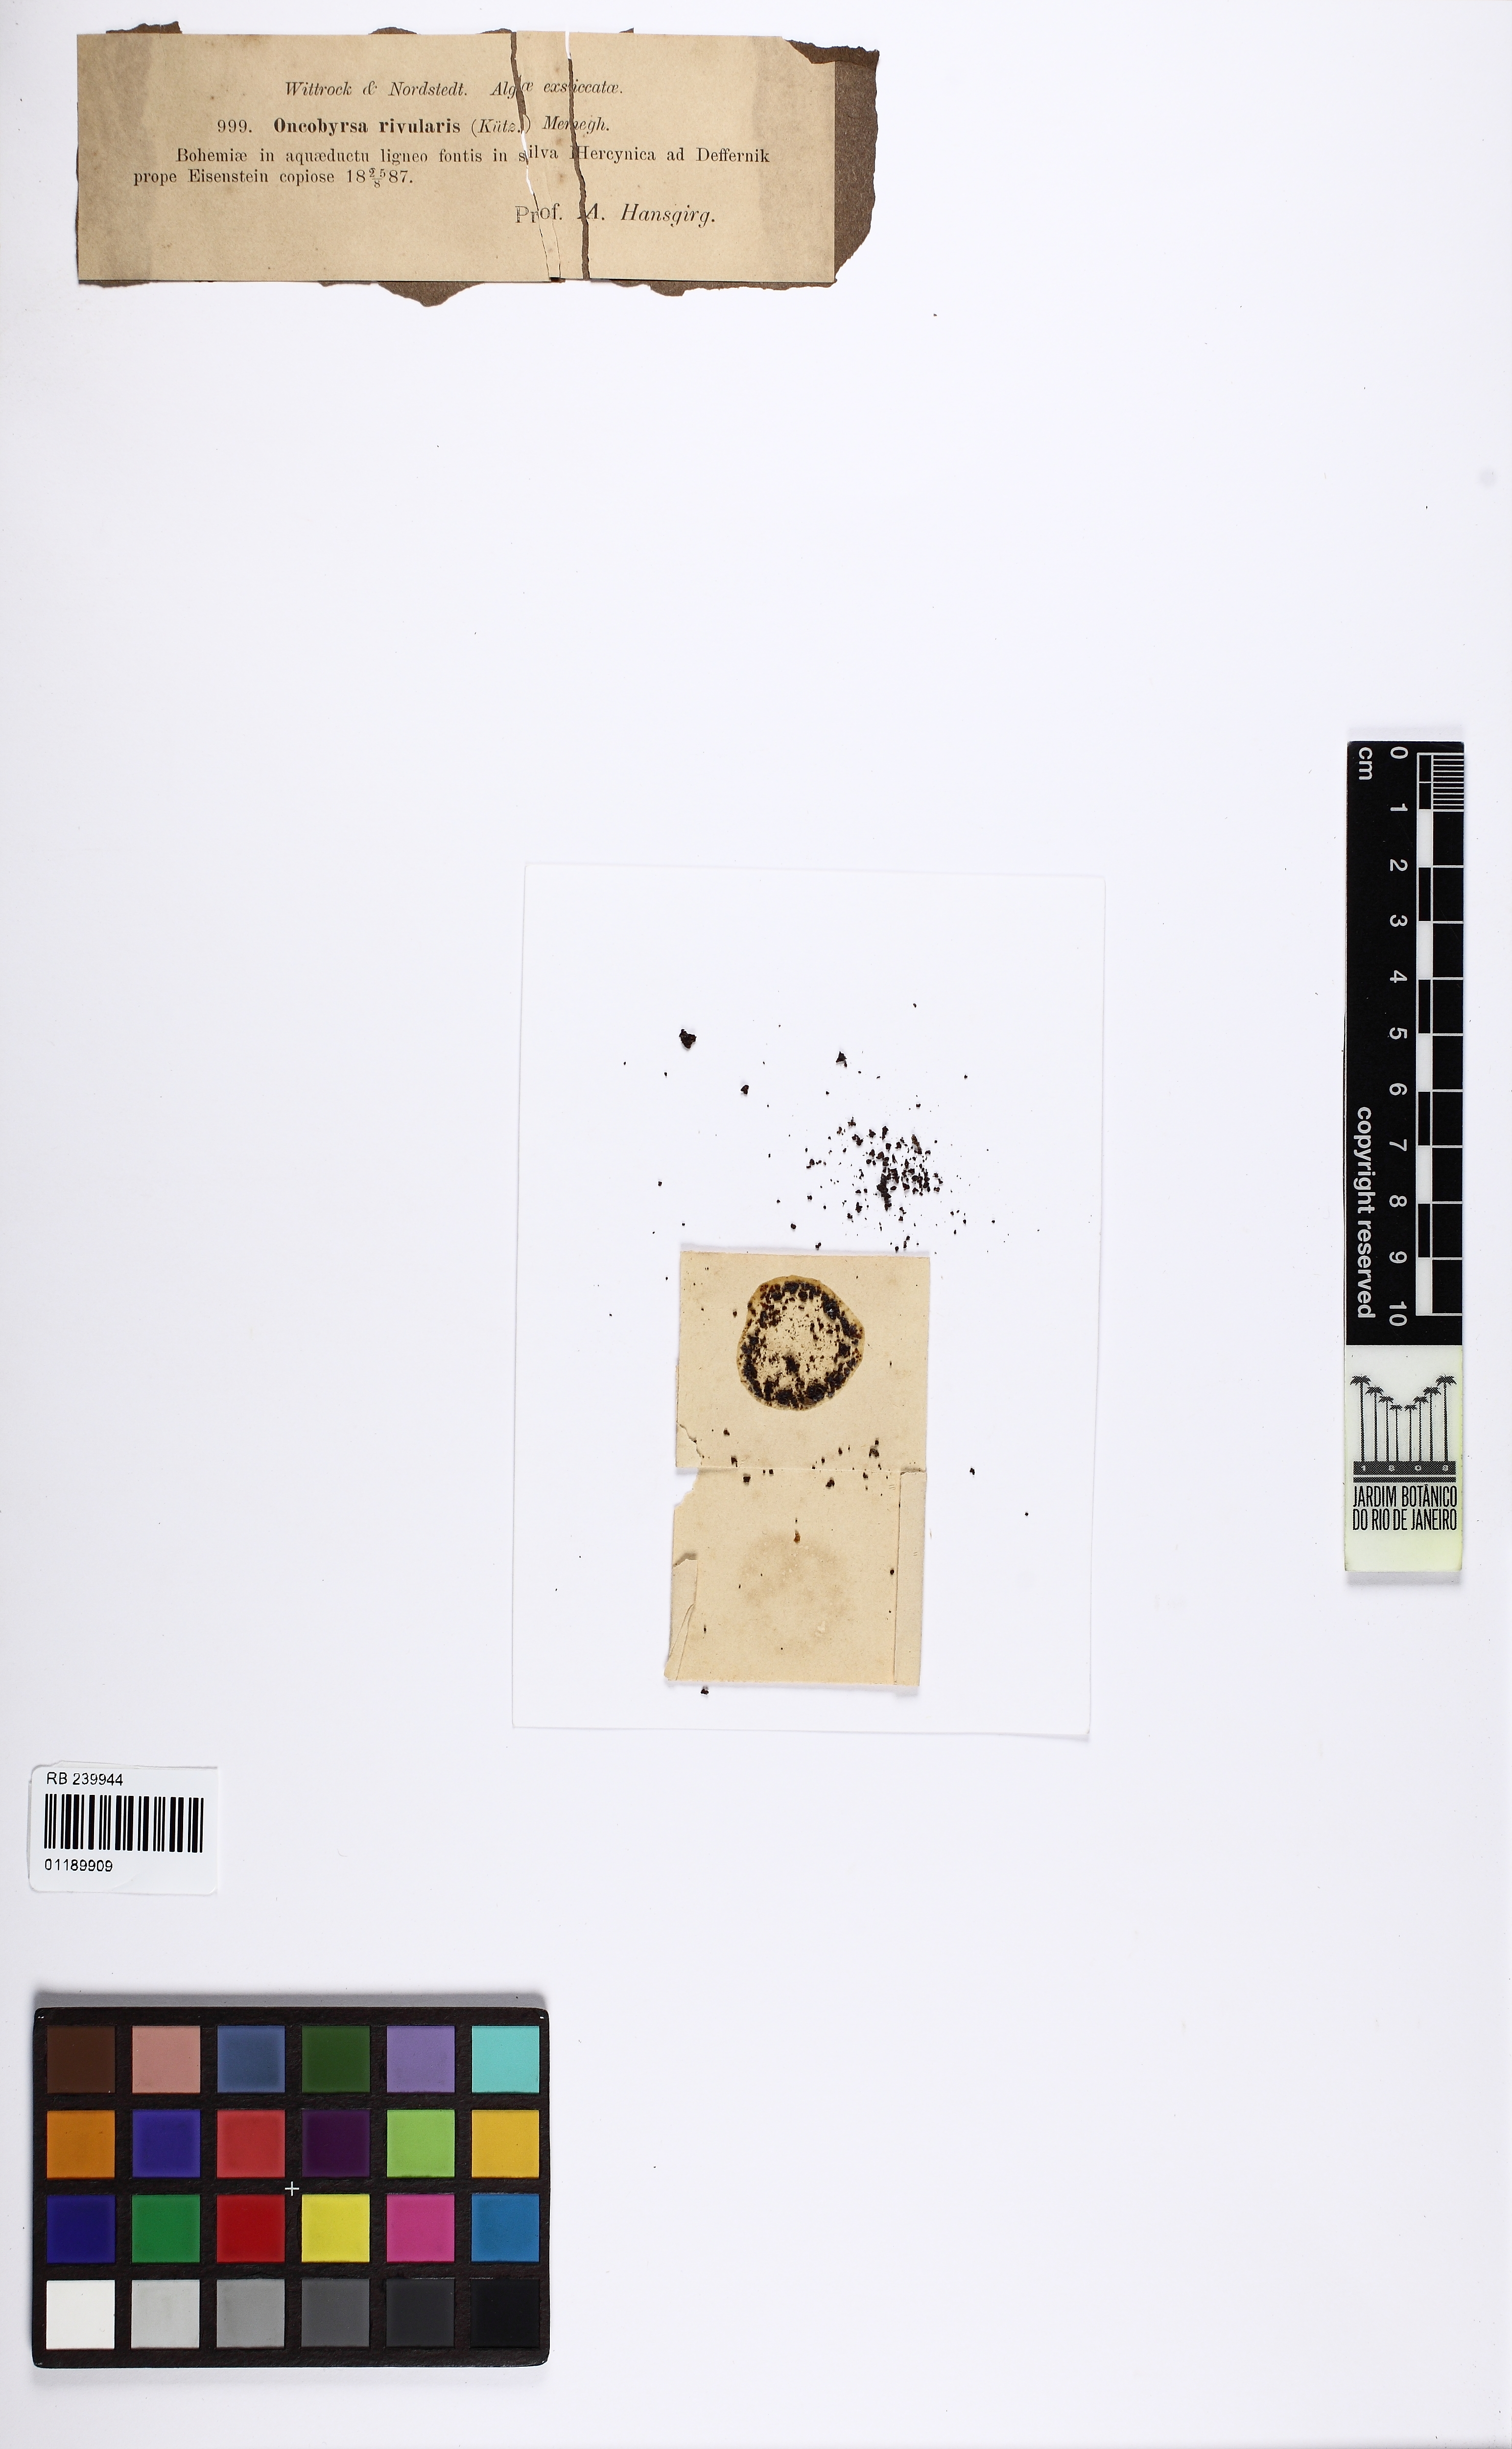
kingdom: Bacteria
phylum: Cyanobacteria
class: Cyanobacteriia
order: Cyanobacteriales
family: Microcystaceae
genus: Hydrococcus
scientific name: Hydrococcus rivularis
